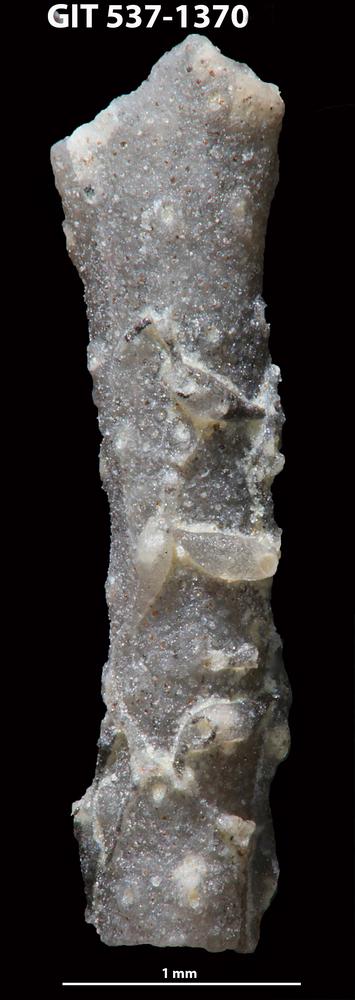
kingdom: Animalia
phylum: Bryozoa
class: Stenolaemata
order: Cyclostomatida
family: Corynotrypidae
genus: Corynotrypa
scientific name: Corynotrypa delicatula
